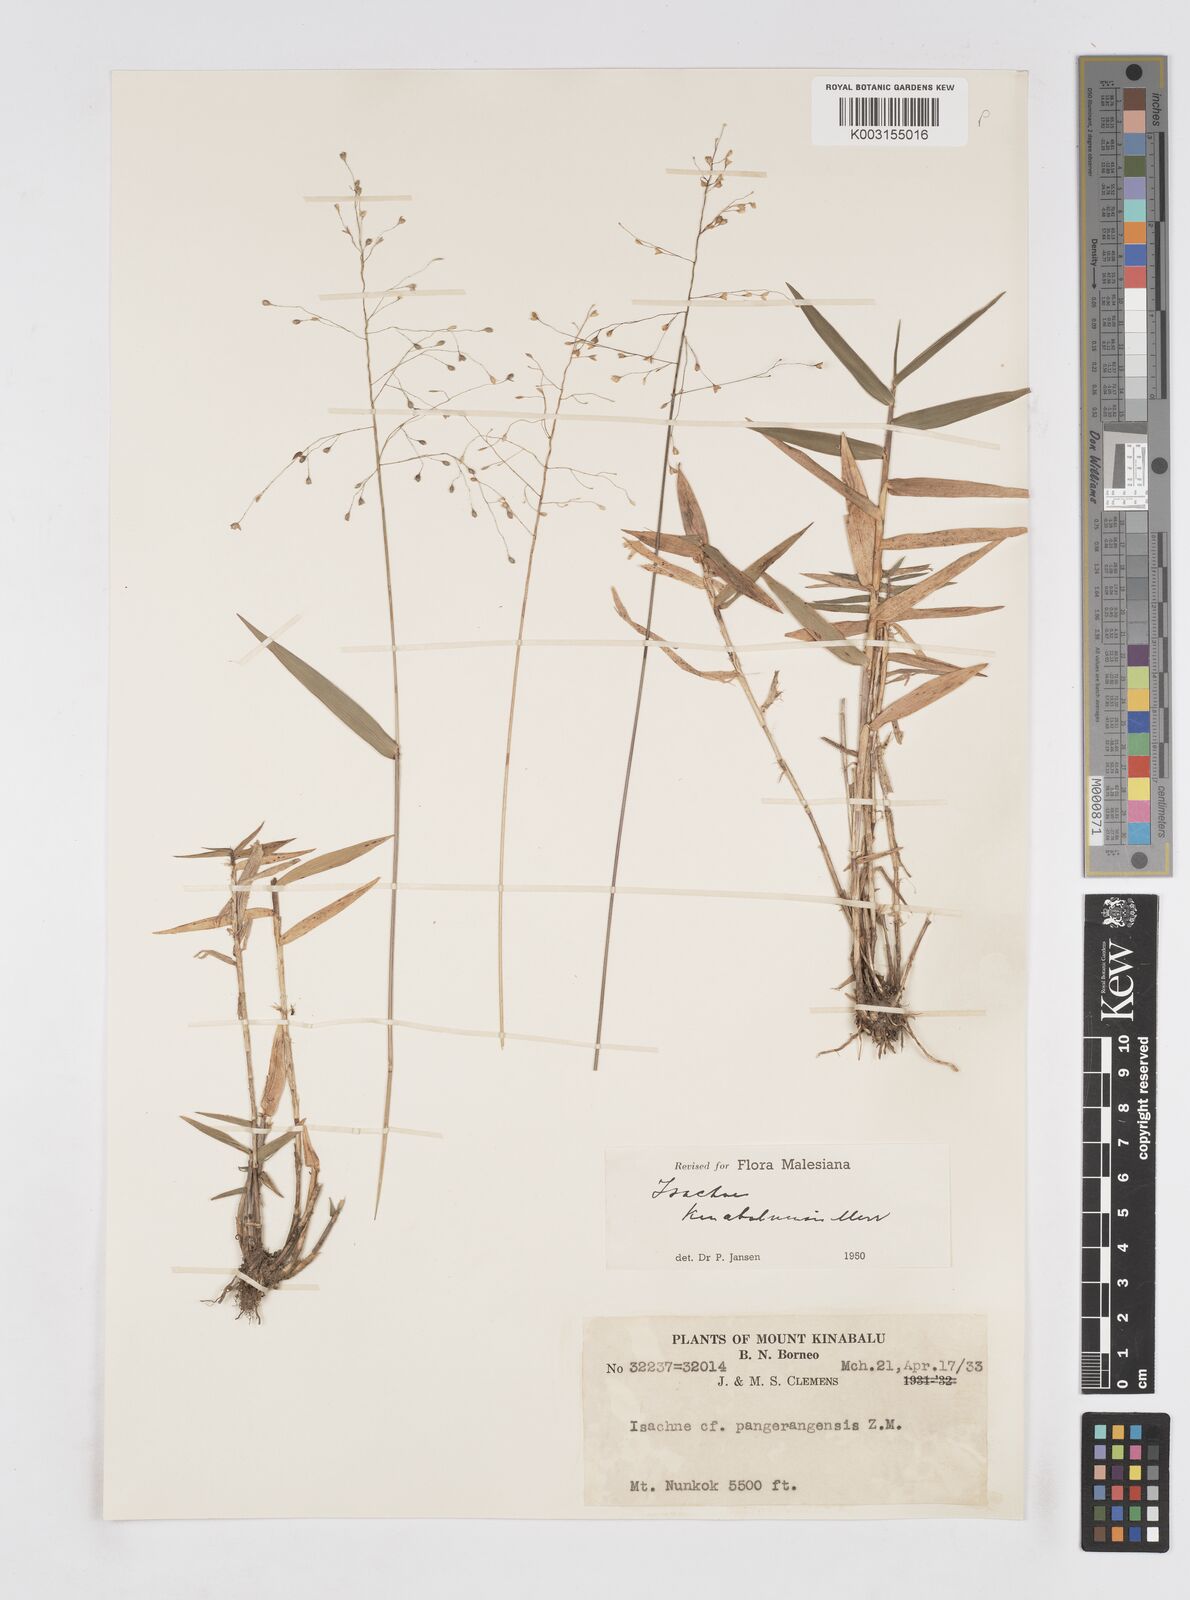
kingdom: Plantae
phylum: Tracheophyta
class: Liliopsida
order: Poales
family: Poaceae
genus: Isachne
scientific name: Isachne kinabaluensis
